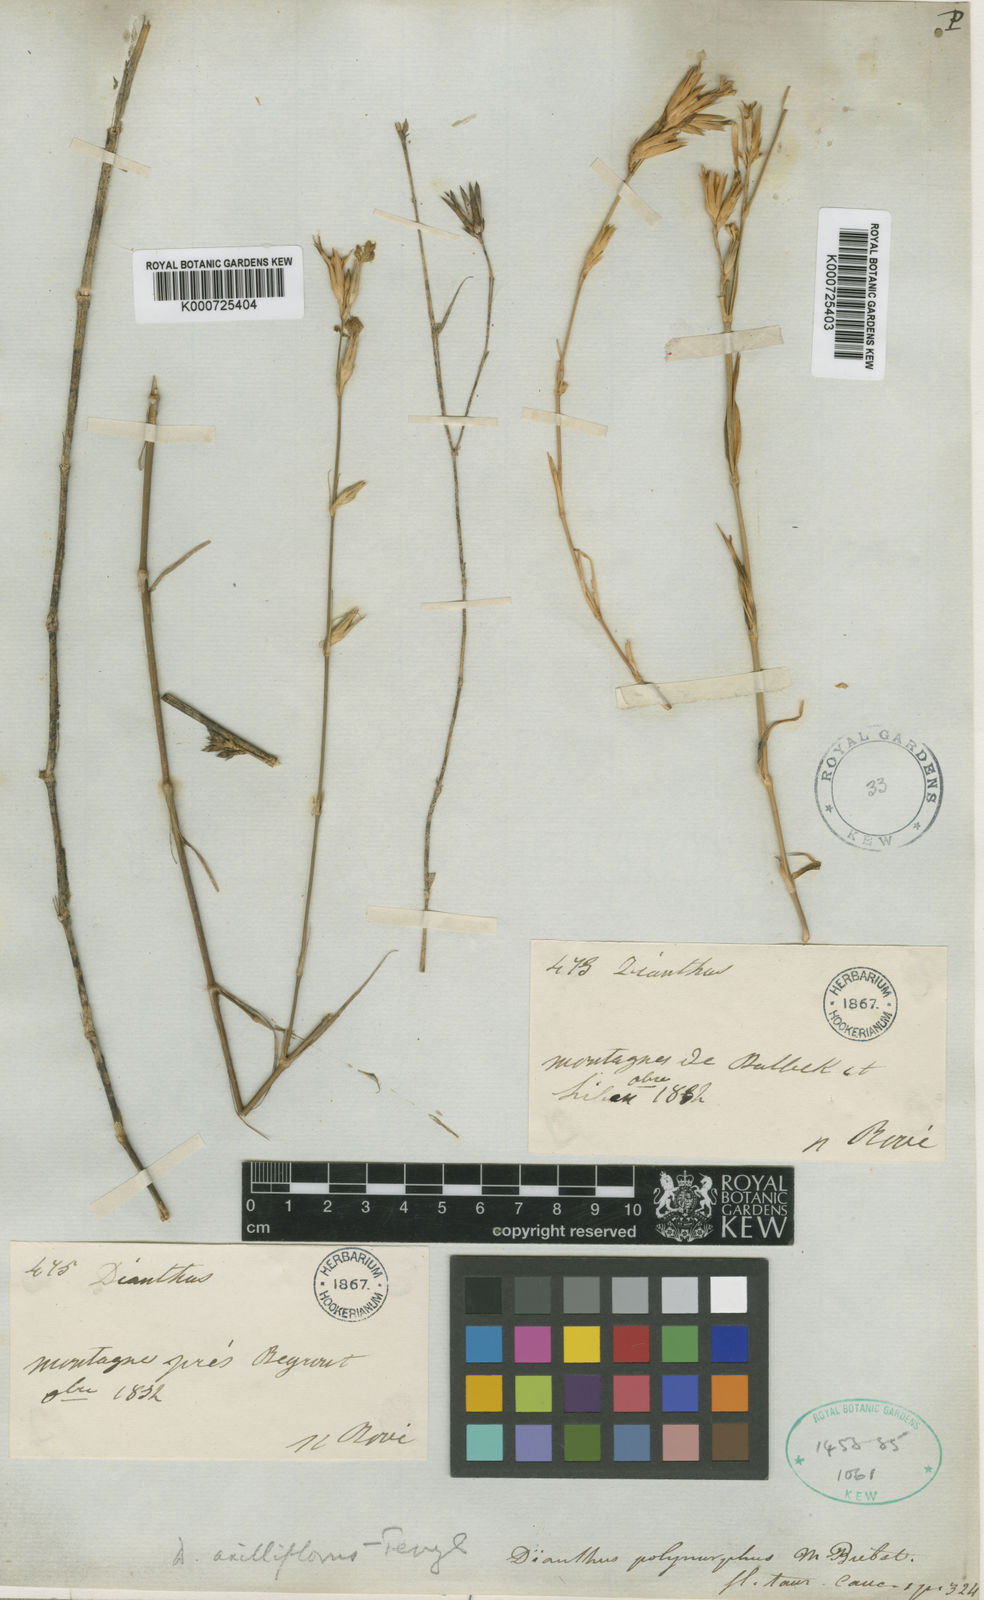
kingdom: Plantae
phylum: Tracheophyta
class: Magnoliopsida
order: Caryophyllales
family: Caryophyllaceae
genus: Dianthus
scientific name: Dianthus strictus
